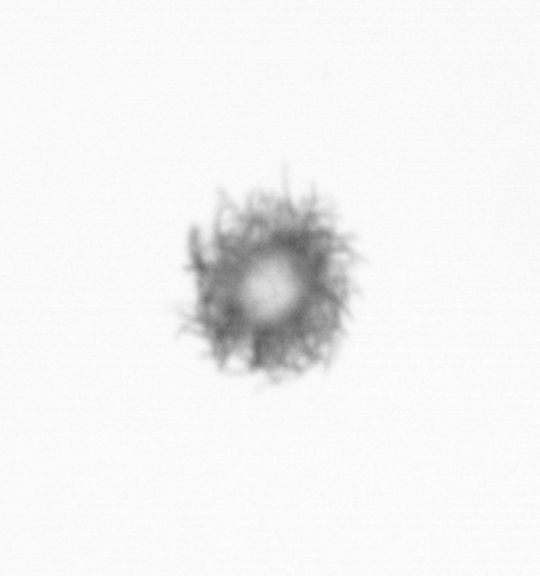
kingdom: Bacteria
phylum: Cyanobacteria
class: Cyanobacteriia
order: Cyanobacteriales
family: Microcoleaceae
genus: Trichodesmium
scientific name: Trichodesmium
